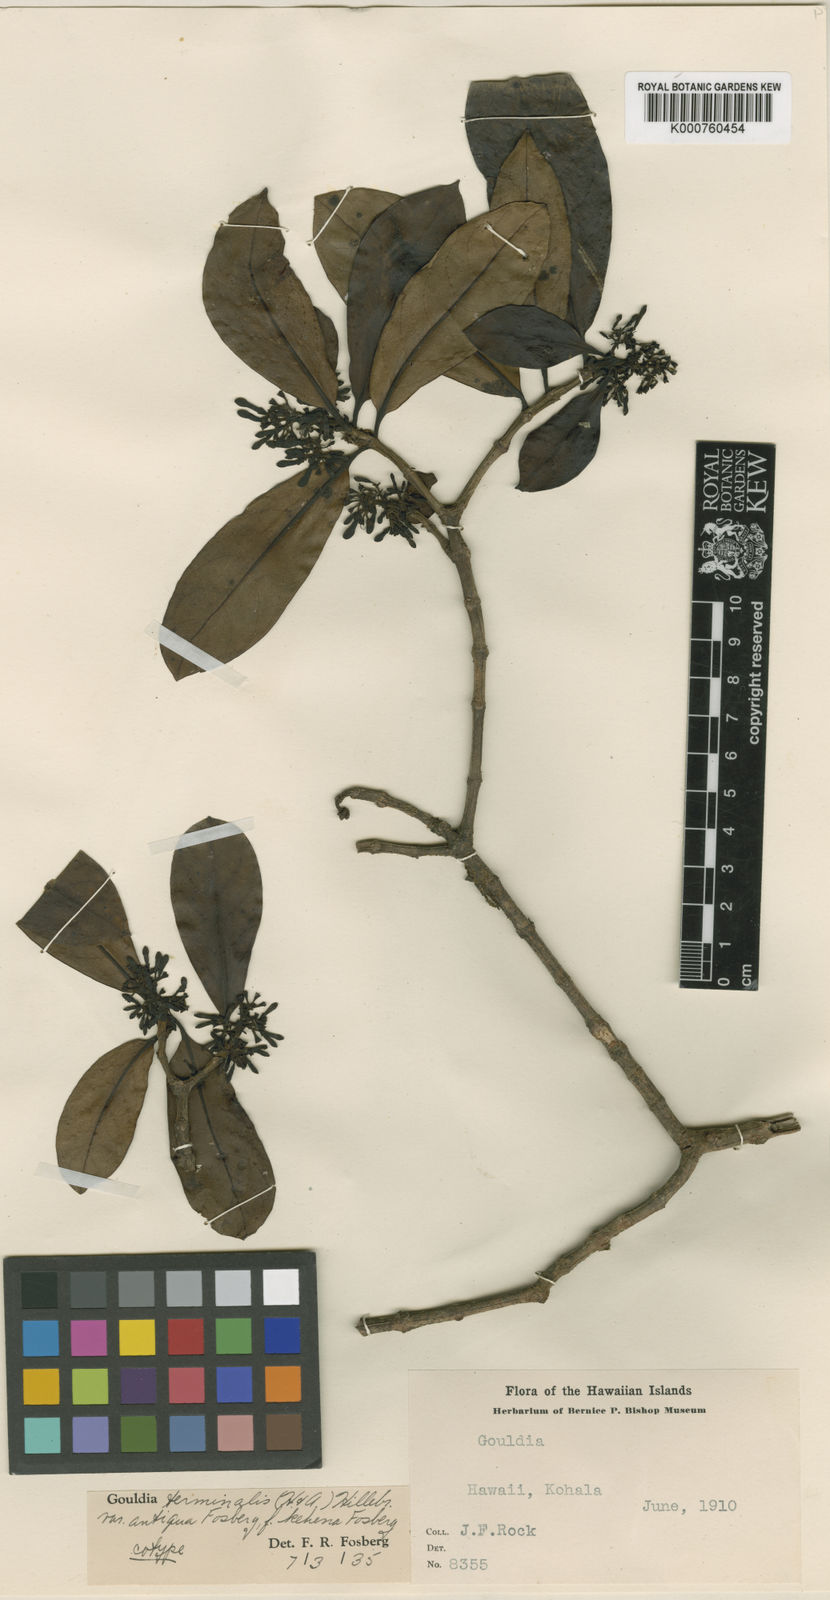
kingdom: Plantae
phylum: Tracheophyta
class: Magnoliopsida
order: Gentianales
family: Rubiaceae
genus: Kadua
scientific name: Kadua affinis
